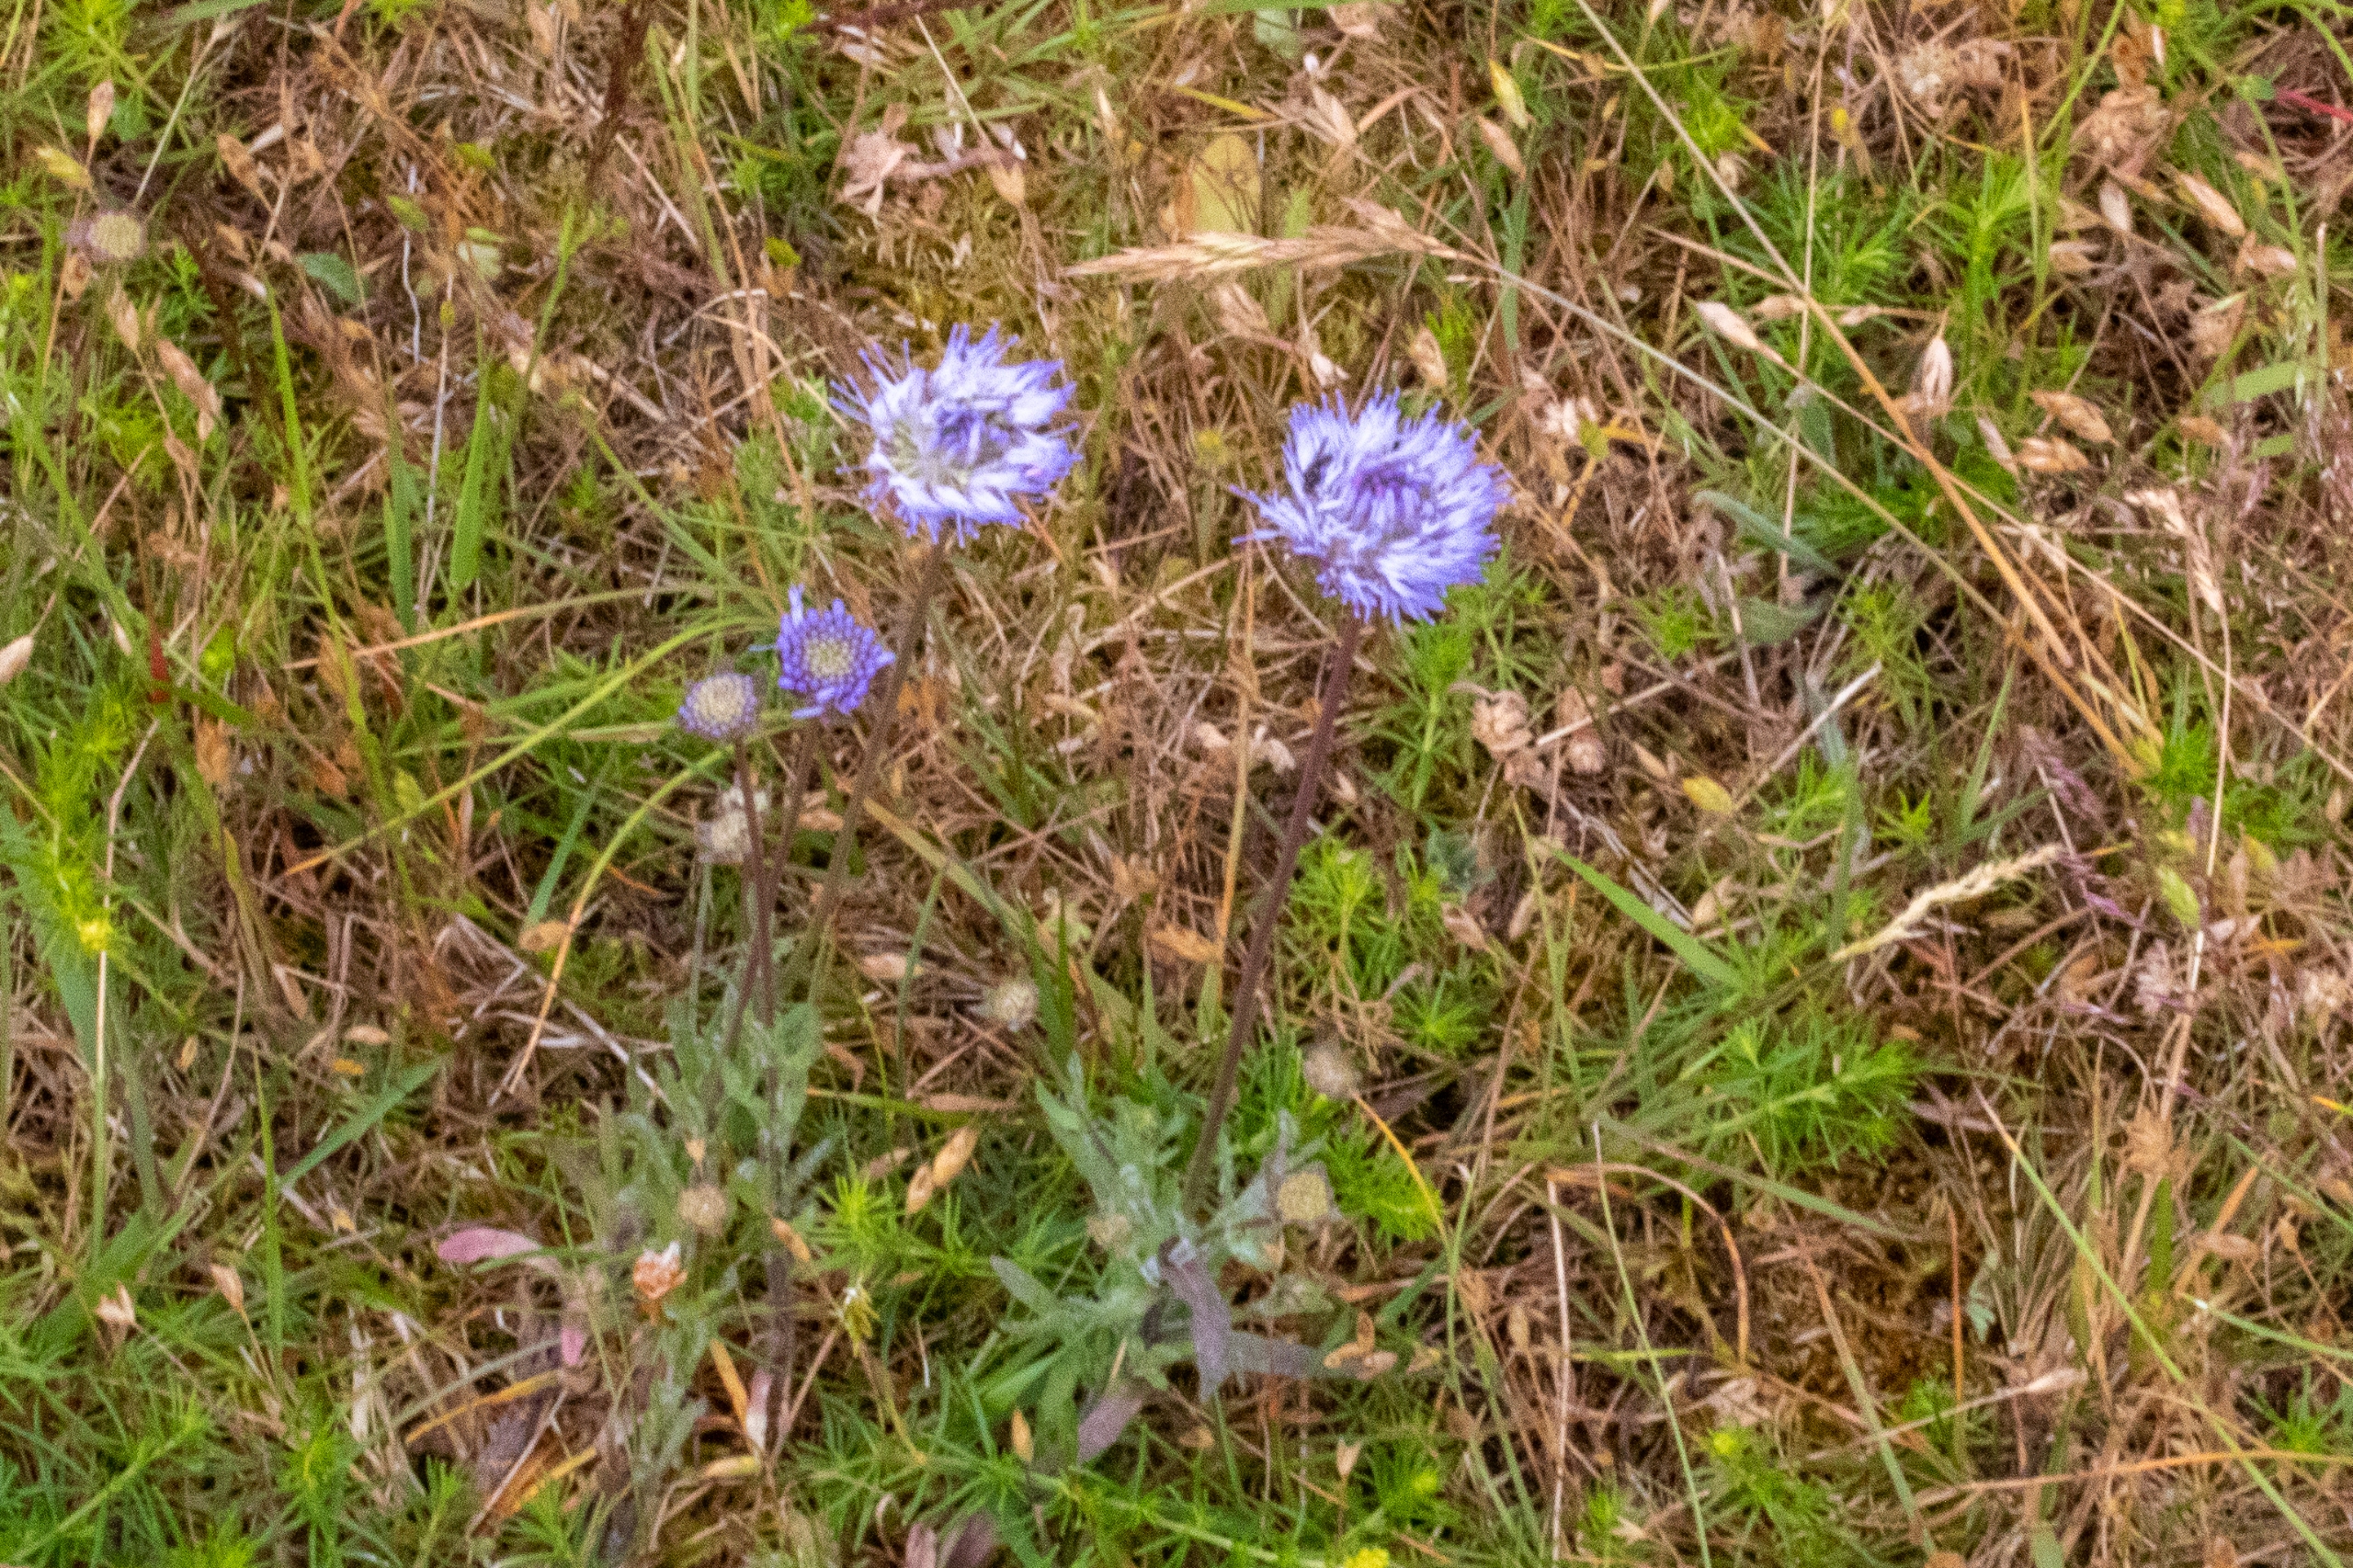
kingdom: Plantae
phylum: Tracheophyta
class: Magnoliopsida
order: Asterales
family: Campanulaceae
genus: Jasione
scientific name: Jasione montana
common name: Blåmunke
